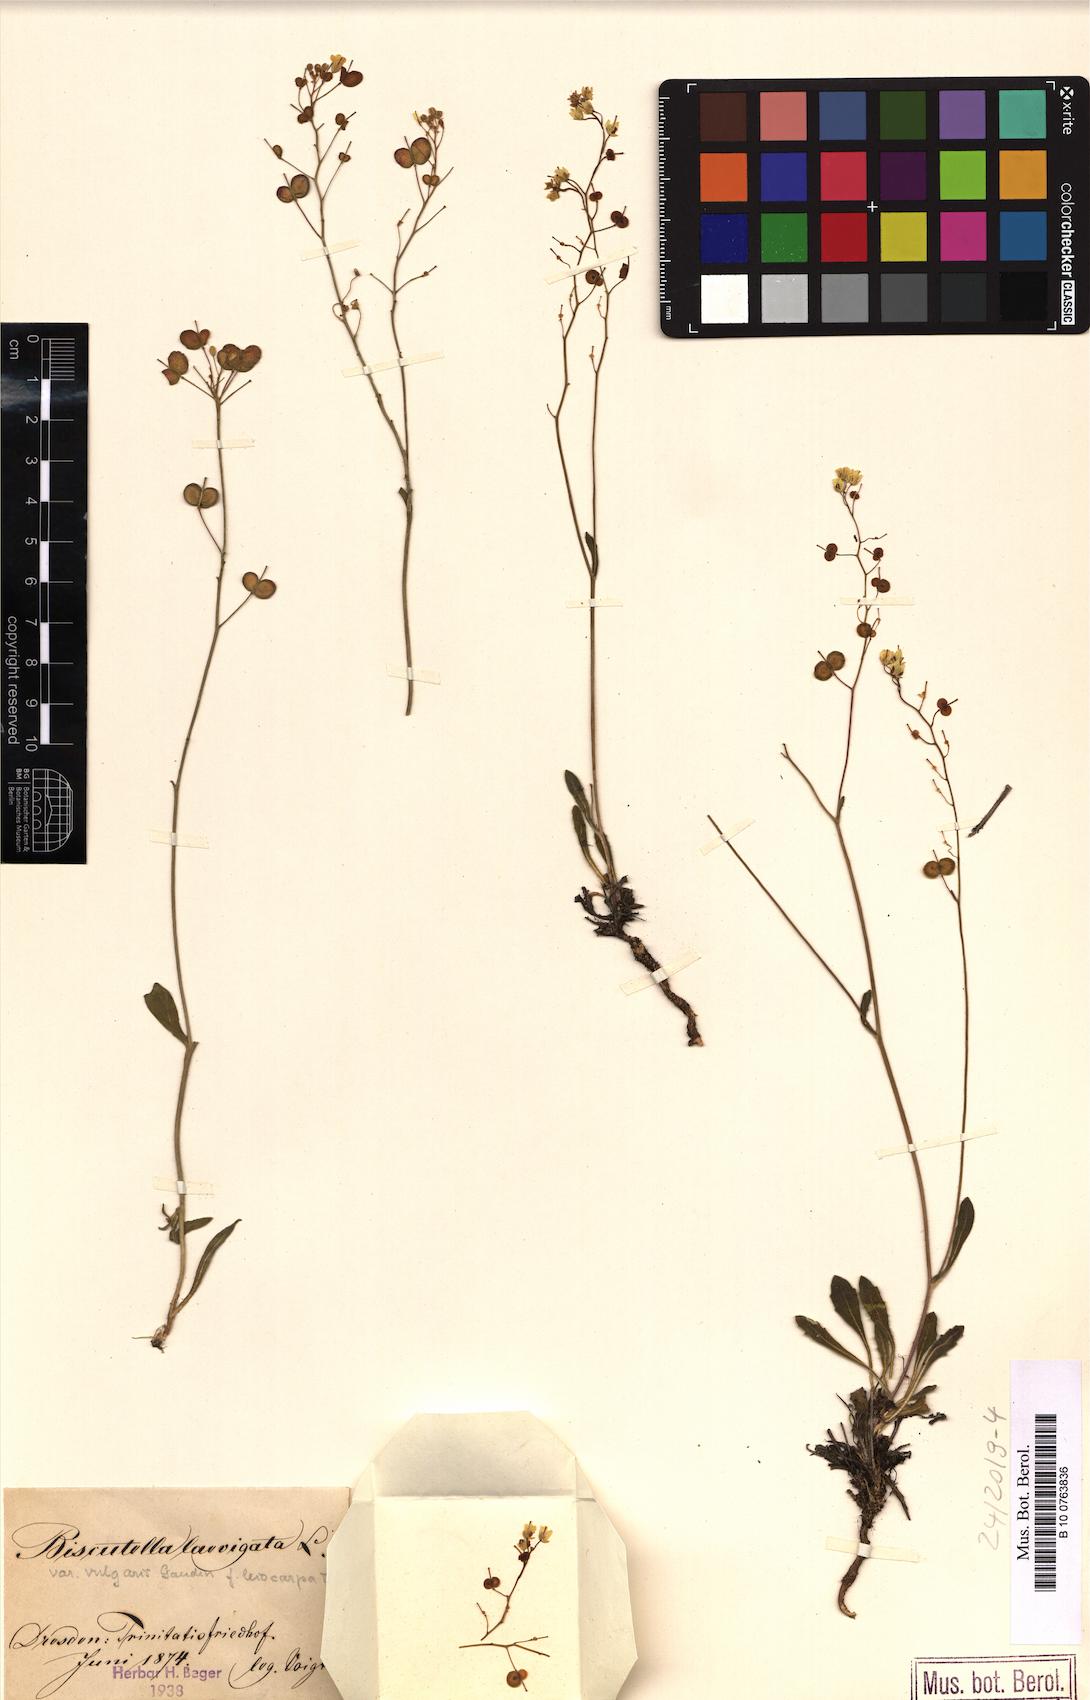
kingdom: Plantae
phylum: Tracheophyta
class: Magnoliopsida
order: Brassicales
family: Brassicaceae
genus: Biscutella
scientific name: Biscutella laevigata
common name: Buckler mustard
